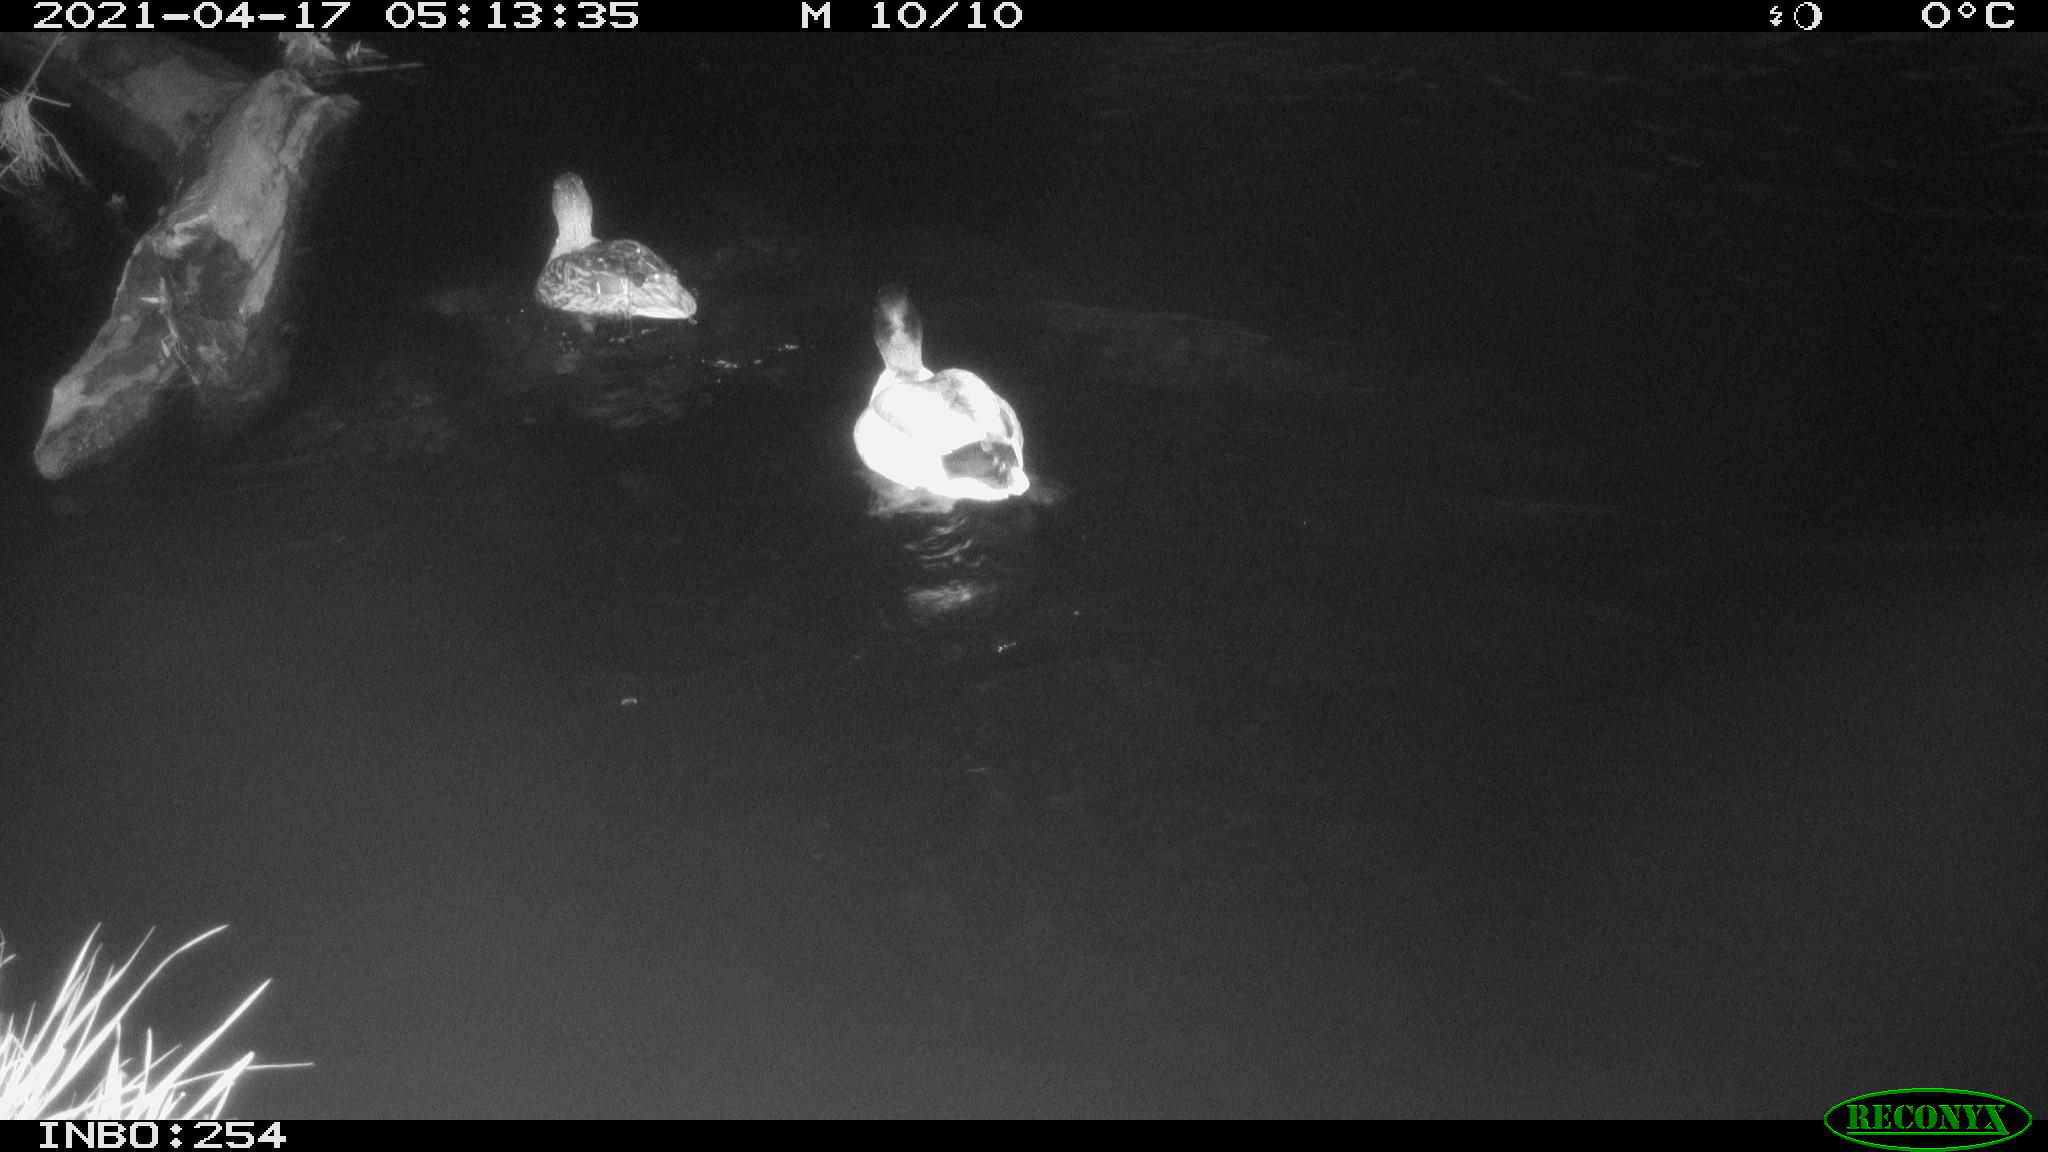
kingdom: Animalia
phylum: Chordata
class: Aves
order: Anseriformes
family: Anatidae
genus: Anas
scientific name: Anas
